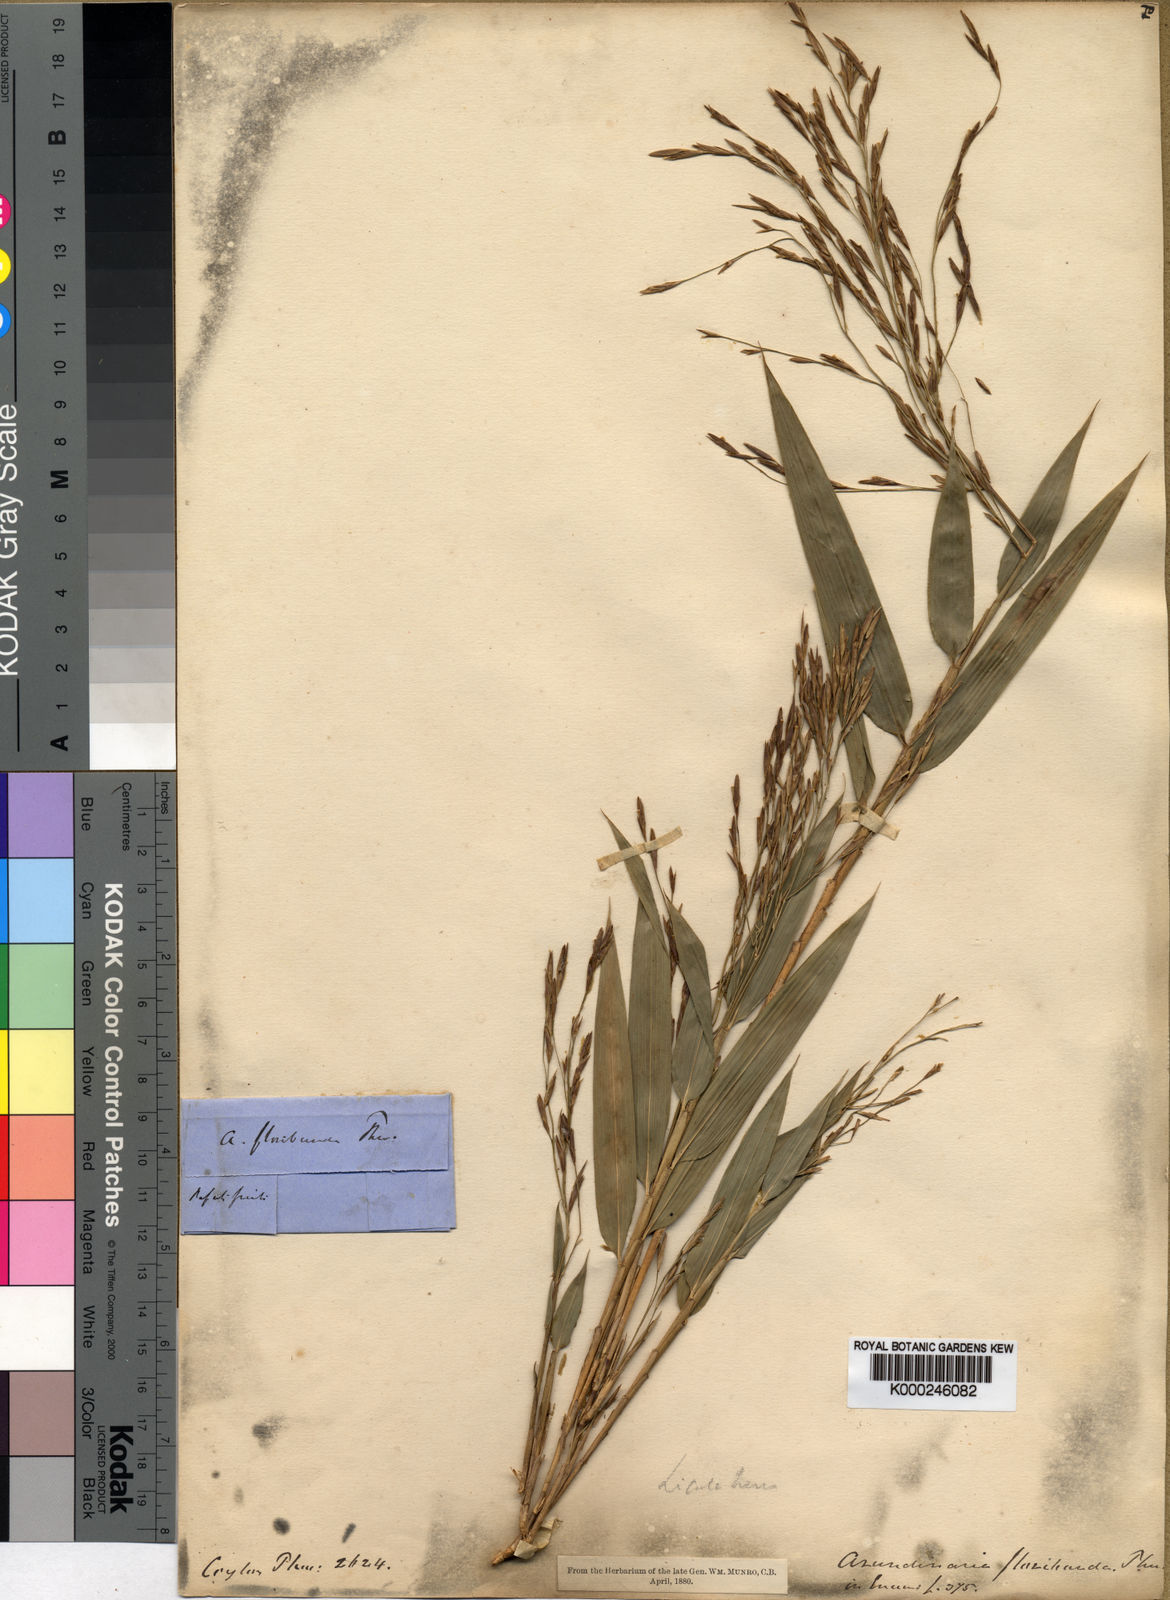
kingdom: Plantae
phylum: Tracheophyta
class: Liliopsida
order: Poales
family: Poaceae
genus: Kuruna
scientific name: Kuruna floribunda
